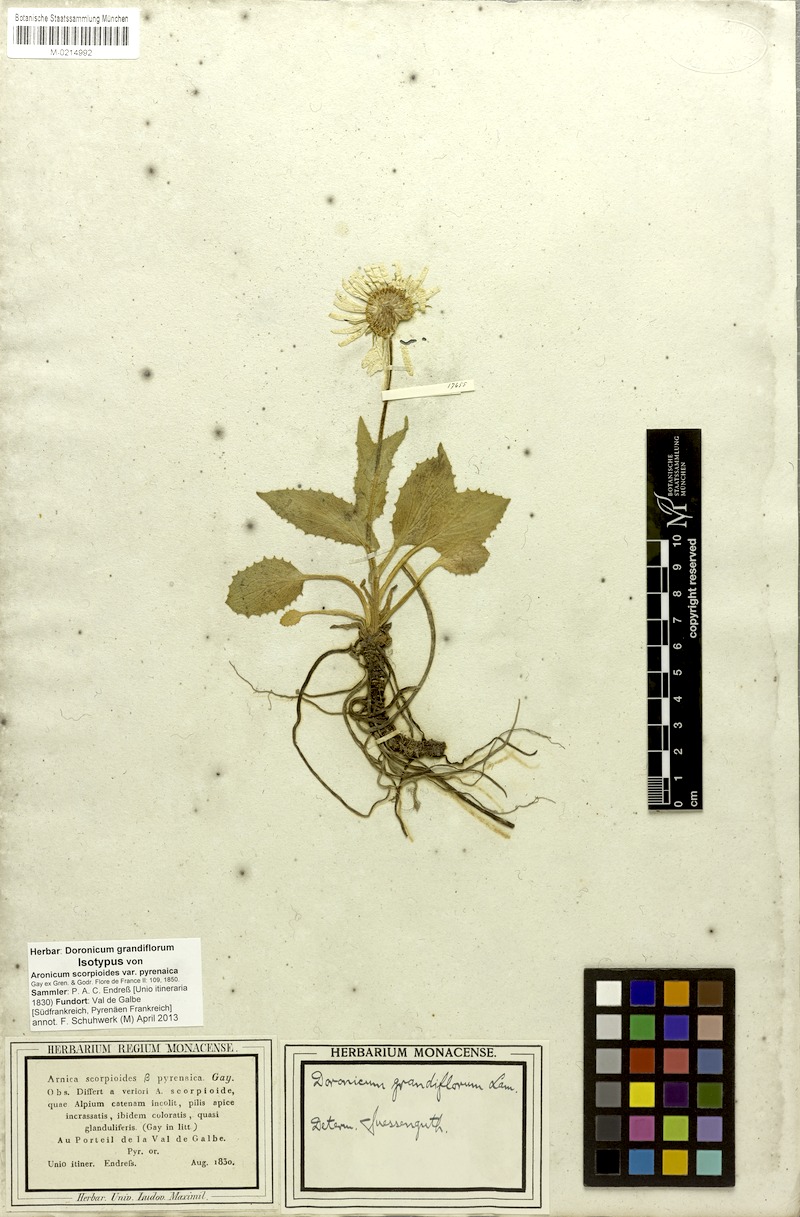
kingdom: Plantae
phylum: Tracheophyta
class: Magnoliopsida
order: Asterales
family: Asteraceae
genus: Doronicum
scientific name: Doronicum grandiflorum
